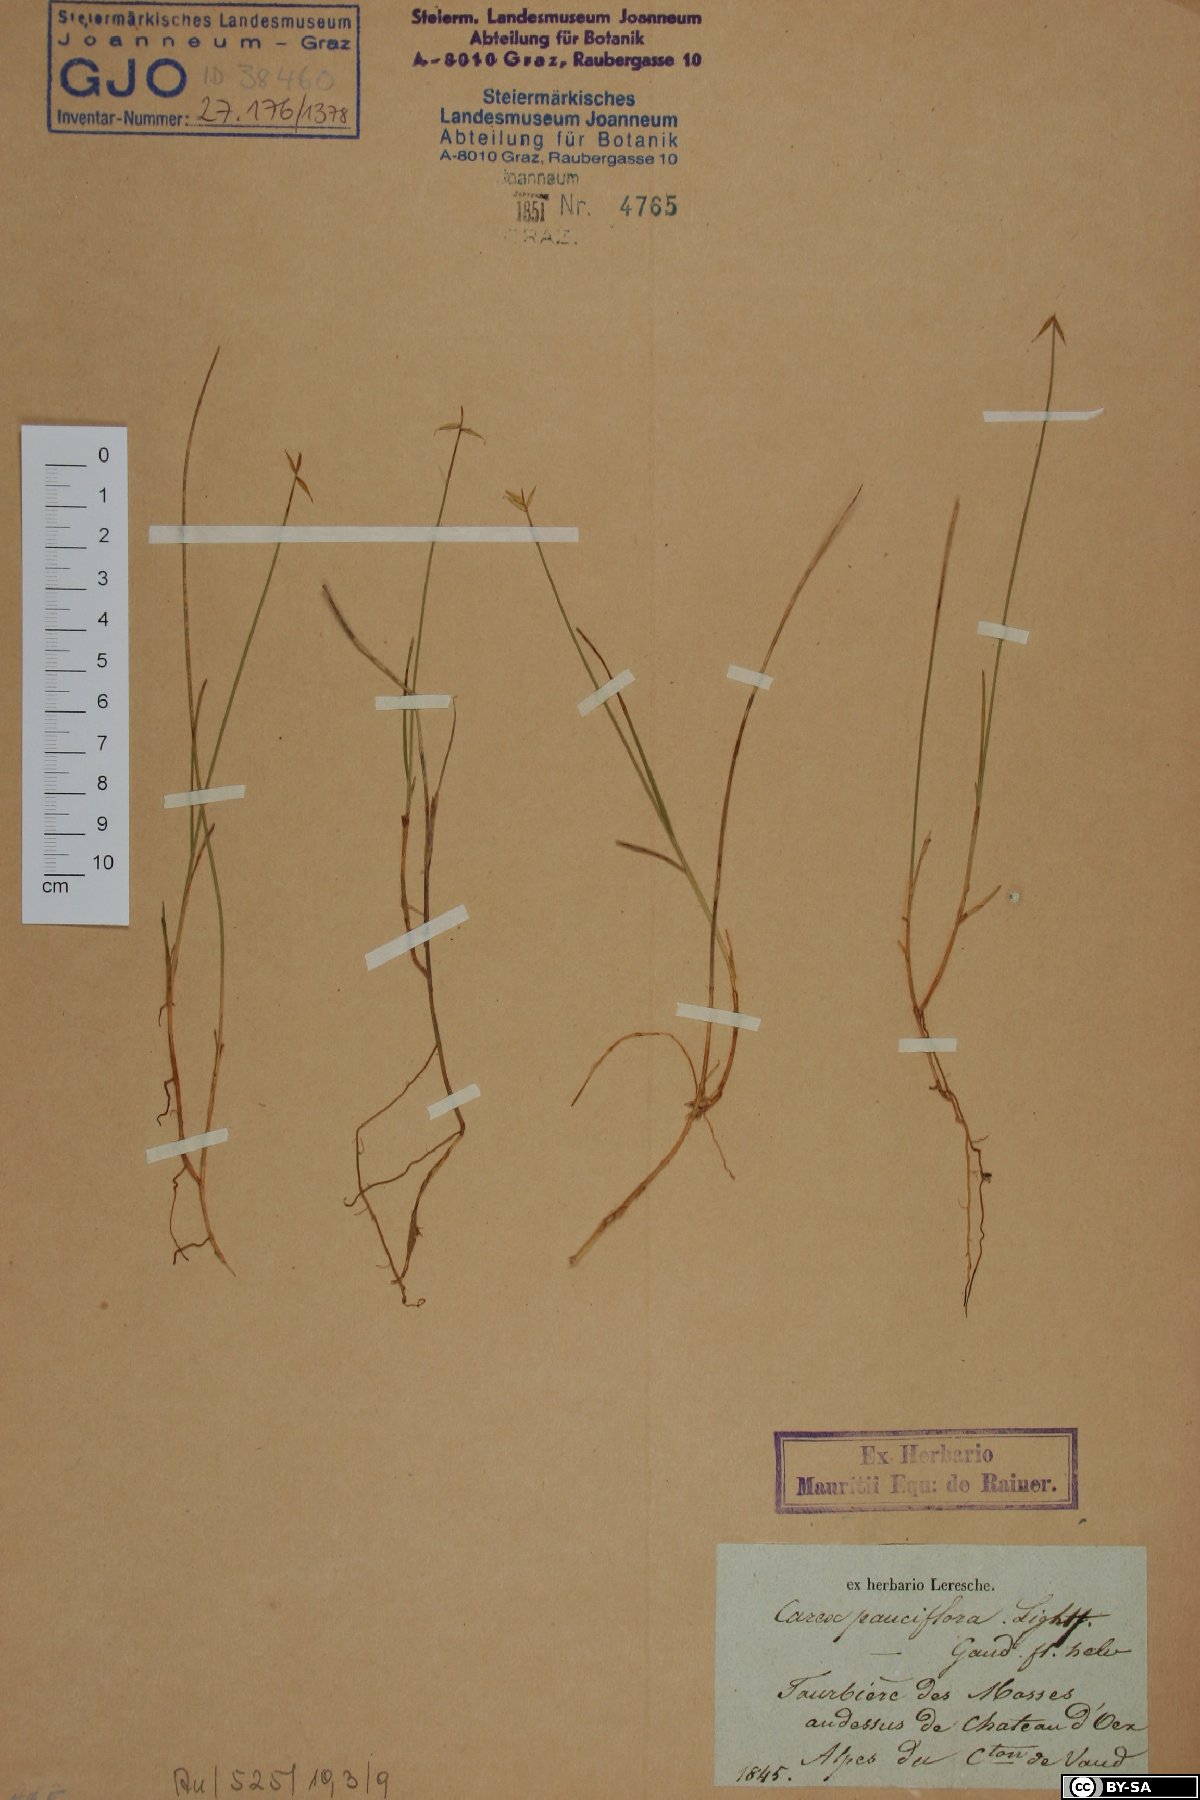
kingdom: Plantae
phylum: Tracheophyta
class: Liliopsida
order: Poales
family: Cyperaceae
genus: Carex
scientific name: Carex pauciflora
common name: Few-flowered sedge
